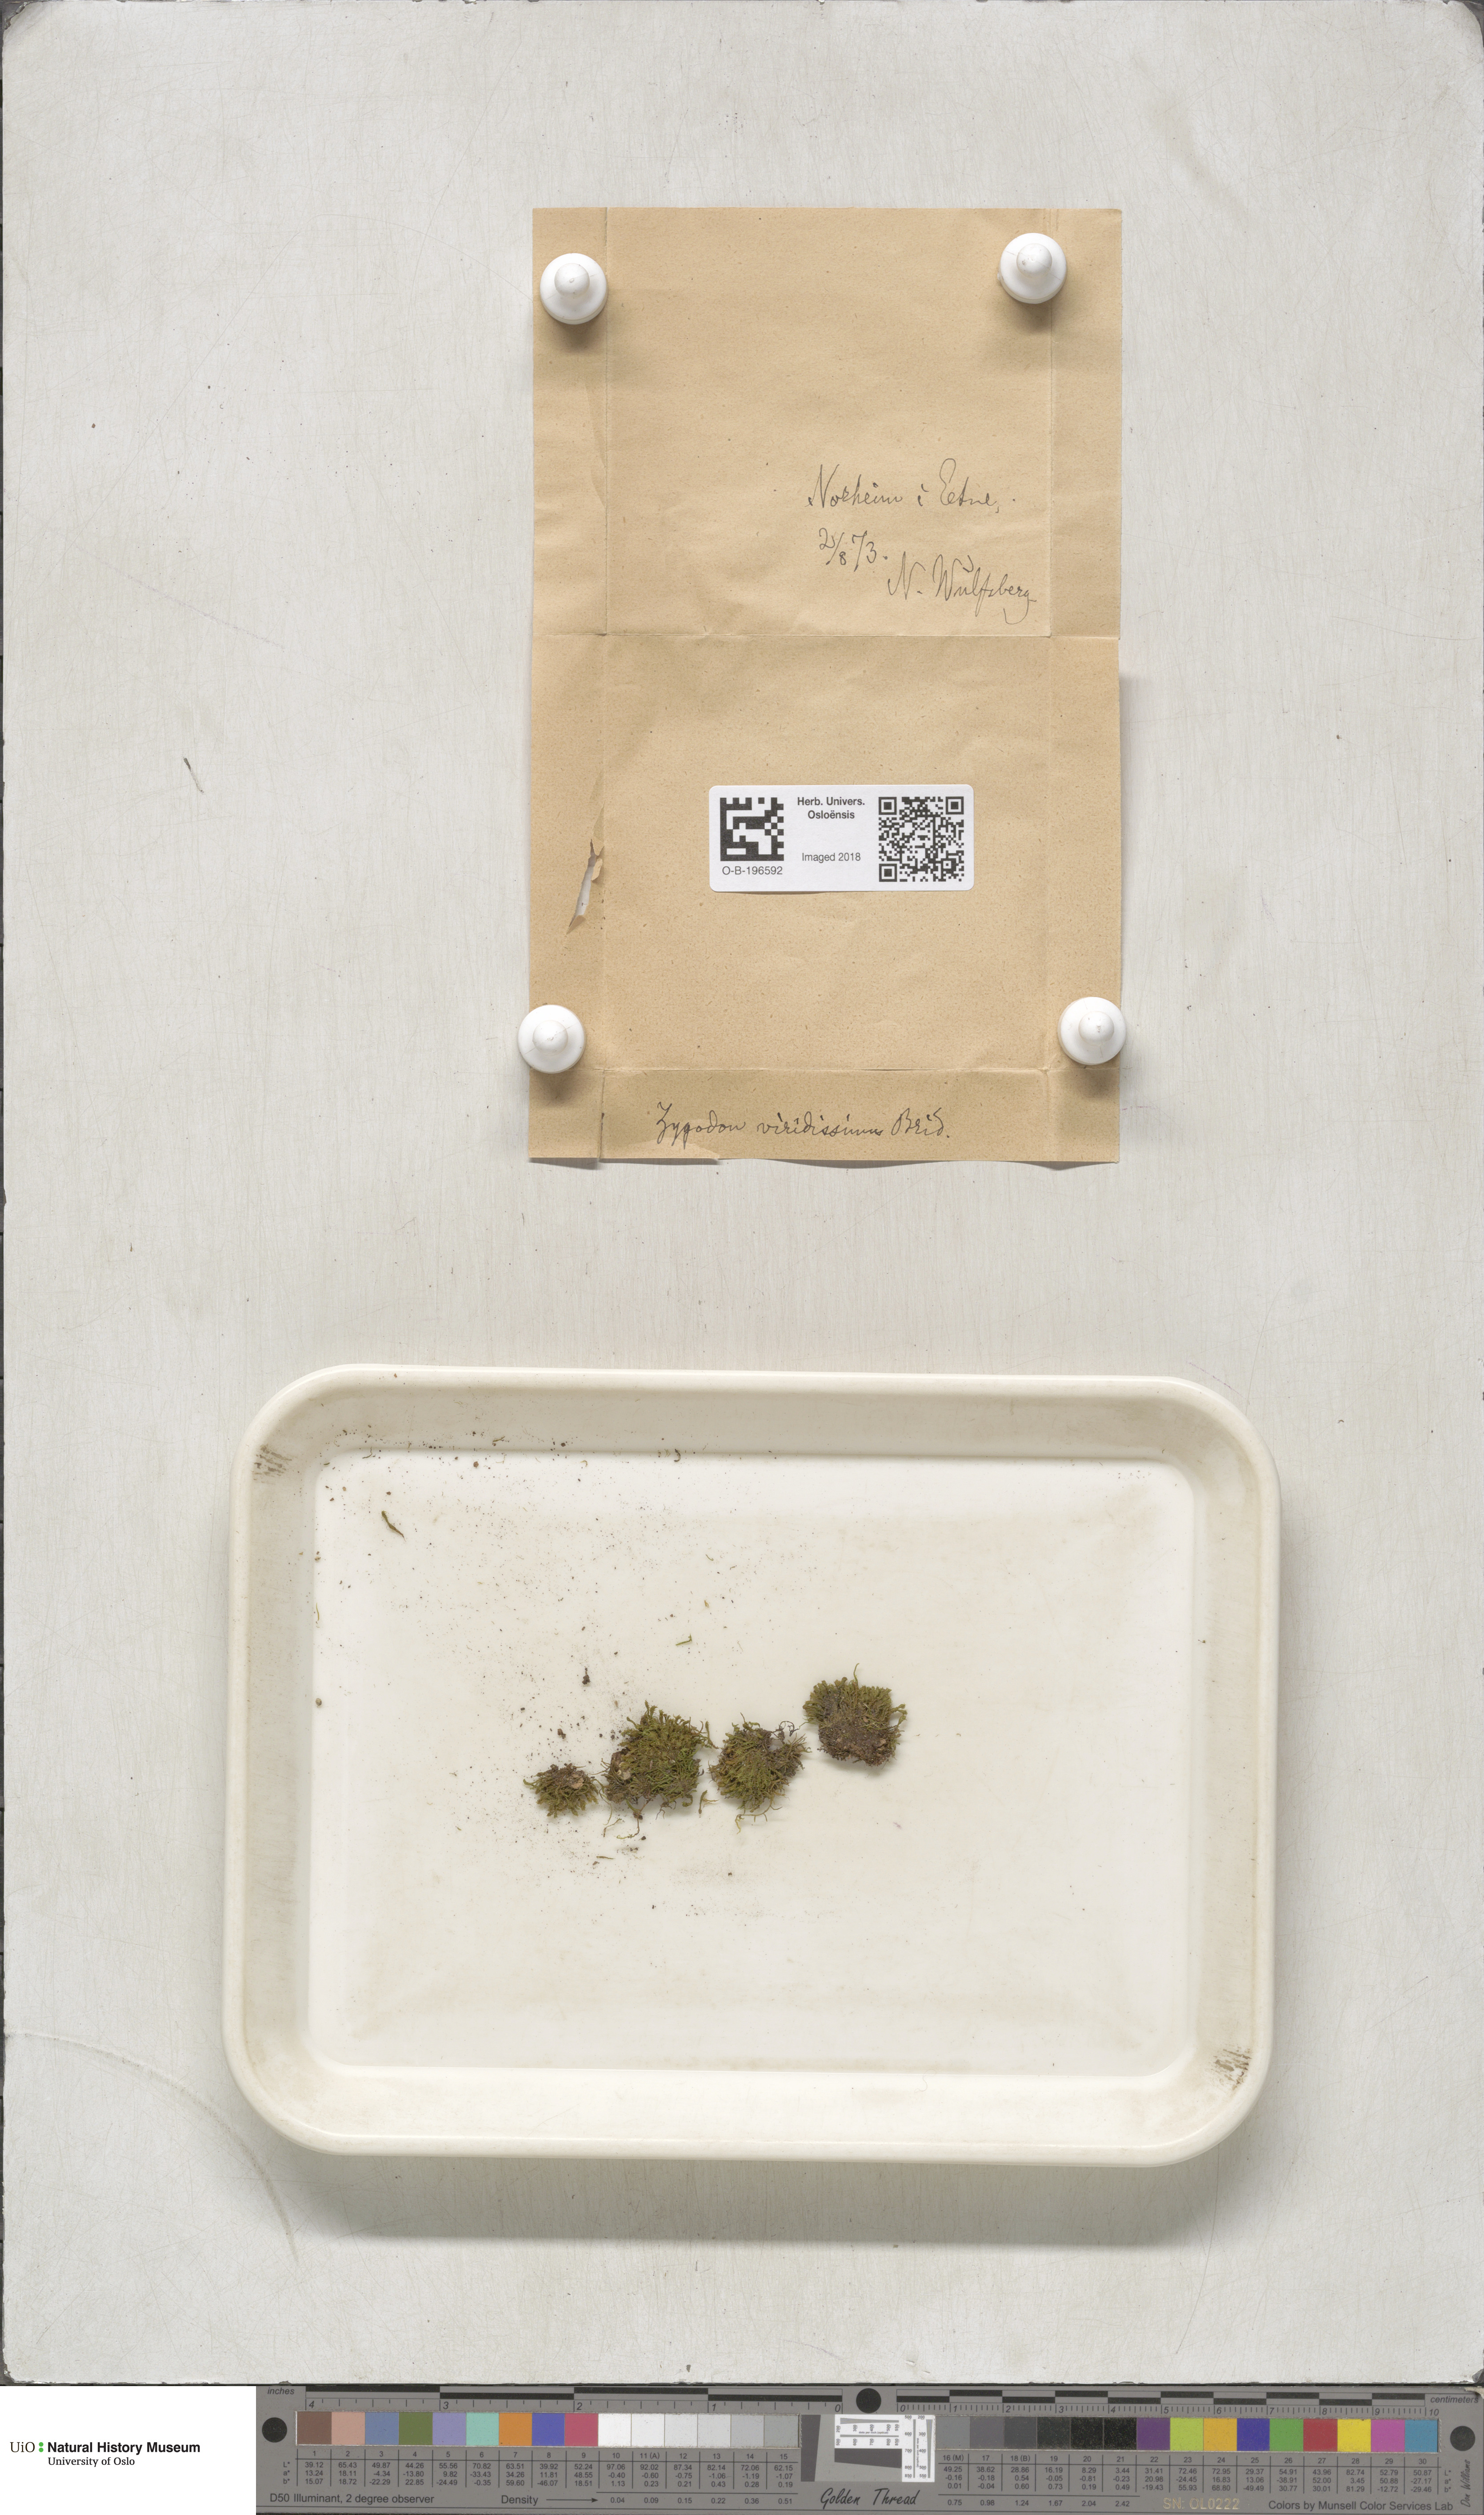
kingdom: Plantae
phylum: Bryophyta
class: Bryopsida
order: Orthotrichales
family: Orthotrichaceae
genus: Zygodon
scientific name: Zygodon viridissimus
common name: Green yoke moss
